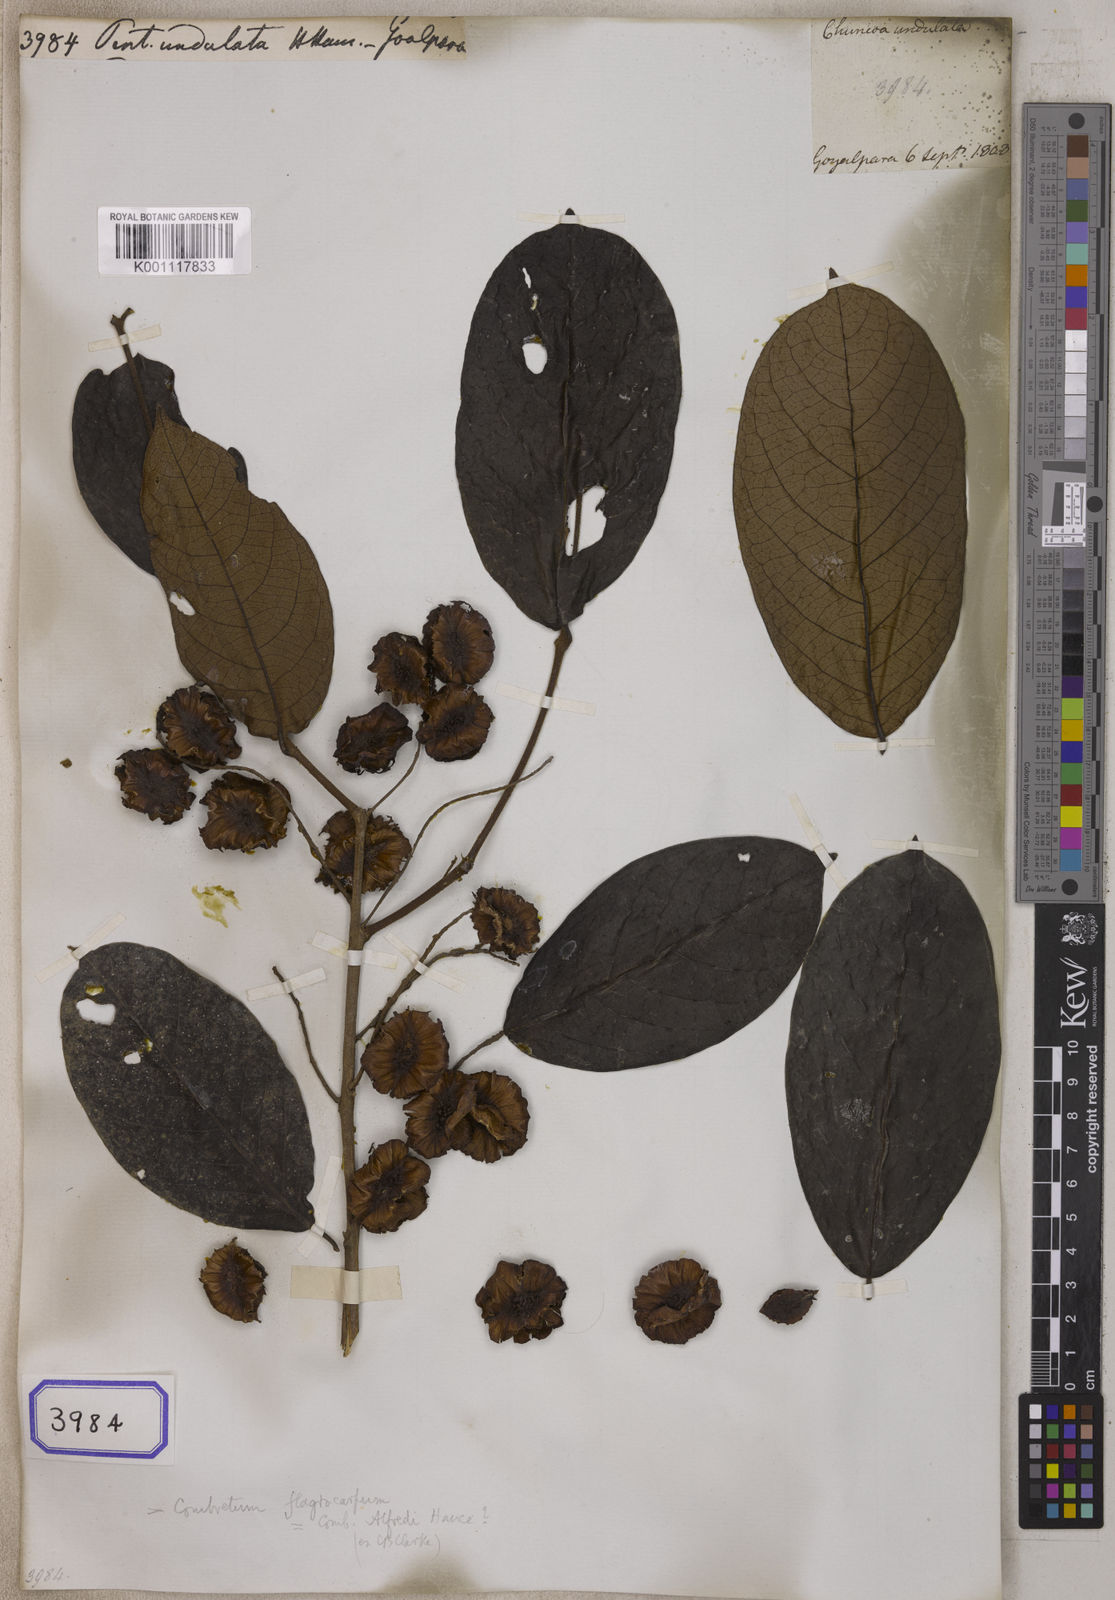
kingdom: Plantae
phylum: Tracheophyta
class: Magnoliopsida
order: Myrtales
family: Combretaceae
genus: Combretum
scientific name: Combretum wallichii
